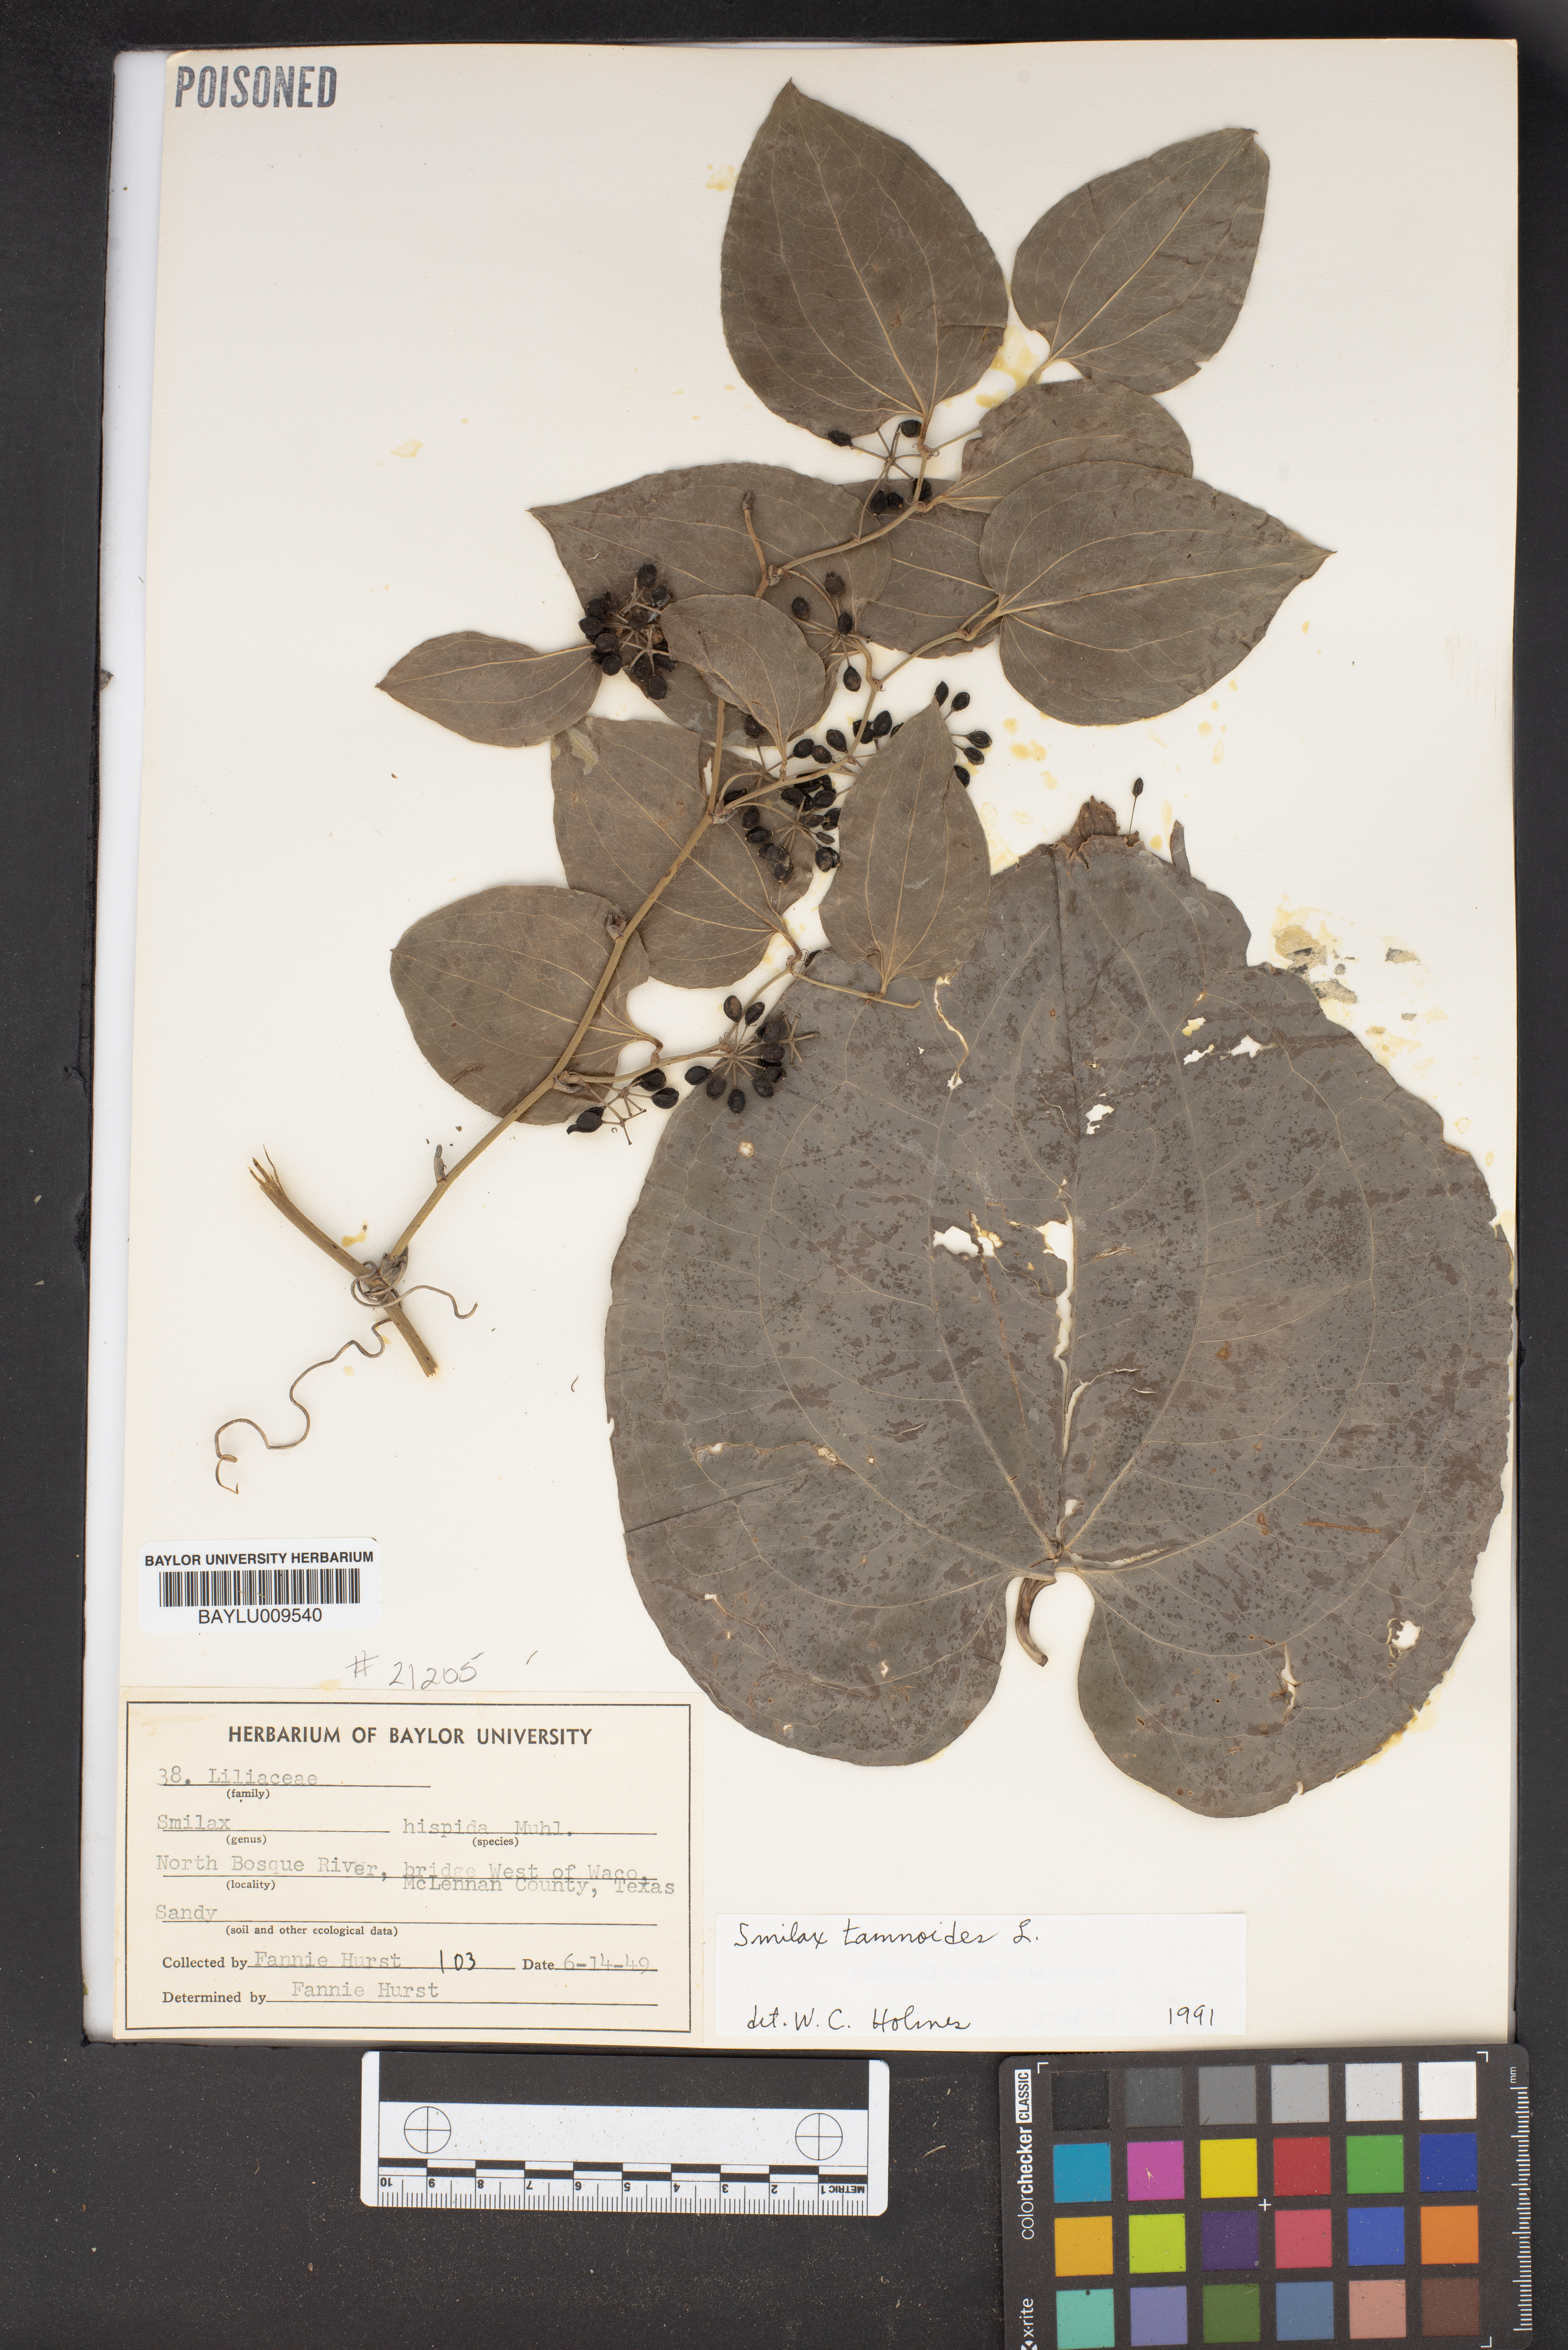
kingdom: Plantae
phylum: Tracheophyta
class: Liliopsida
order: Liliales
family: Smilacaceae
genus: Smilax
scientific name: Smilax tamnoides
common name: Hellfetter
